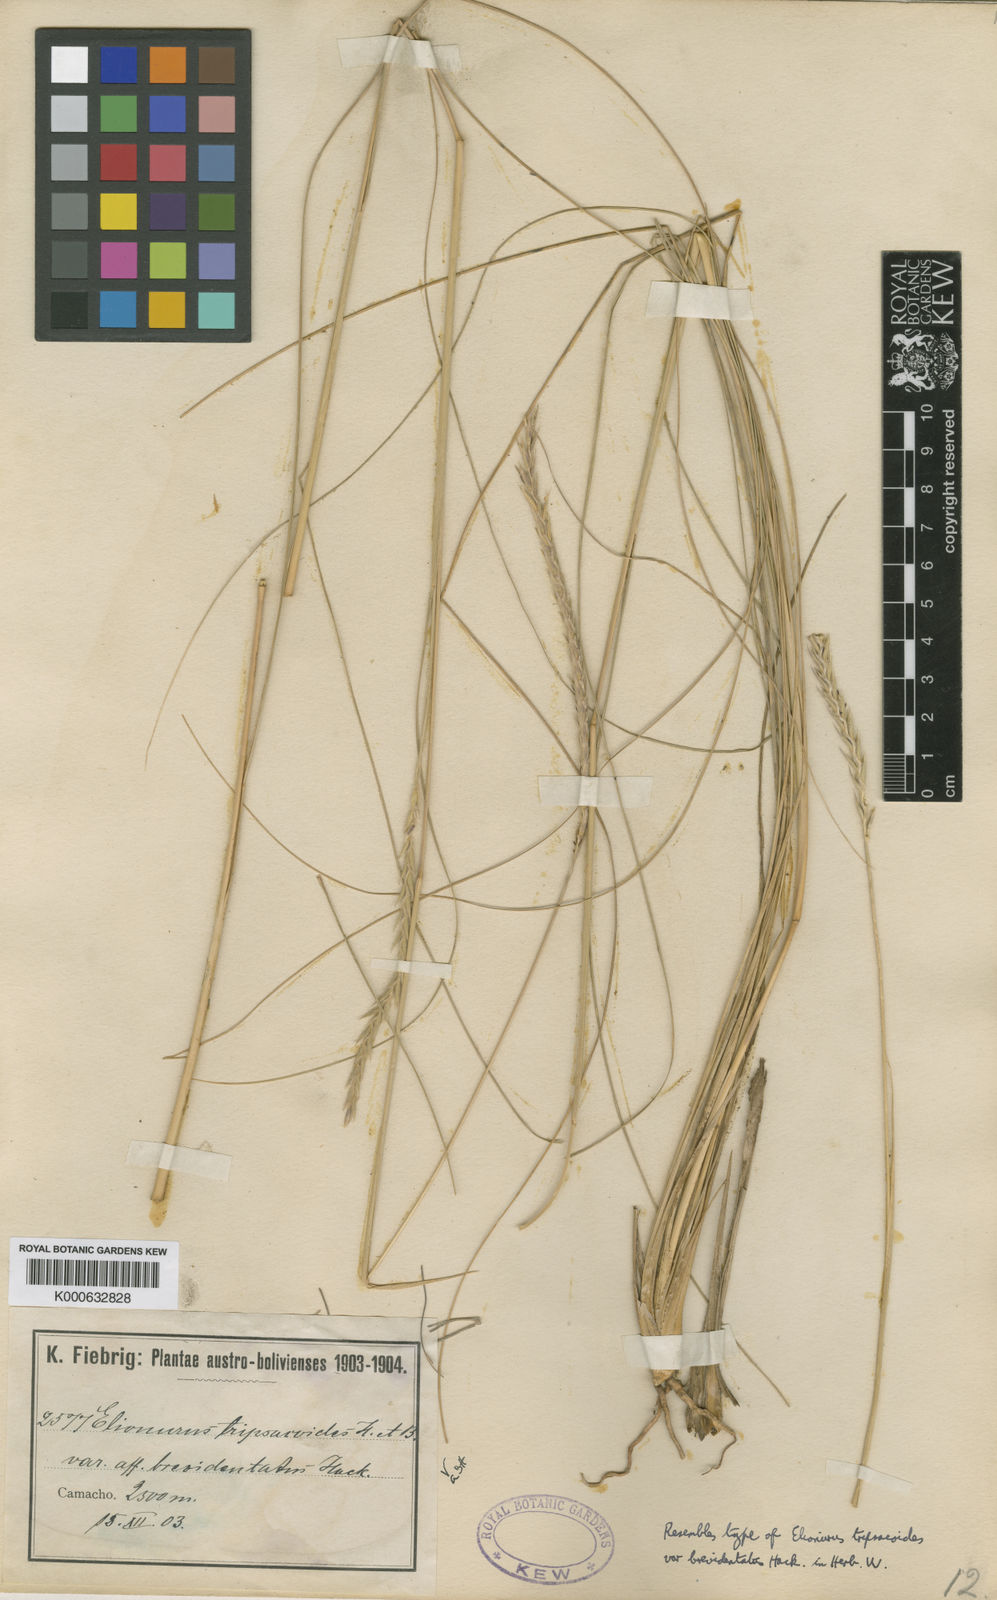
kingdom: Plantae
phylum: Tracheophyta
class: Liliopsida
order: Poales
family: Poaceae
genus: Elionurus
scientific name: Elionurus tripsacoides
